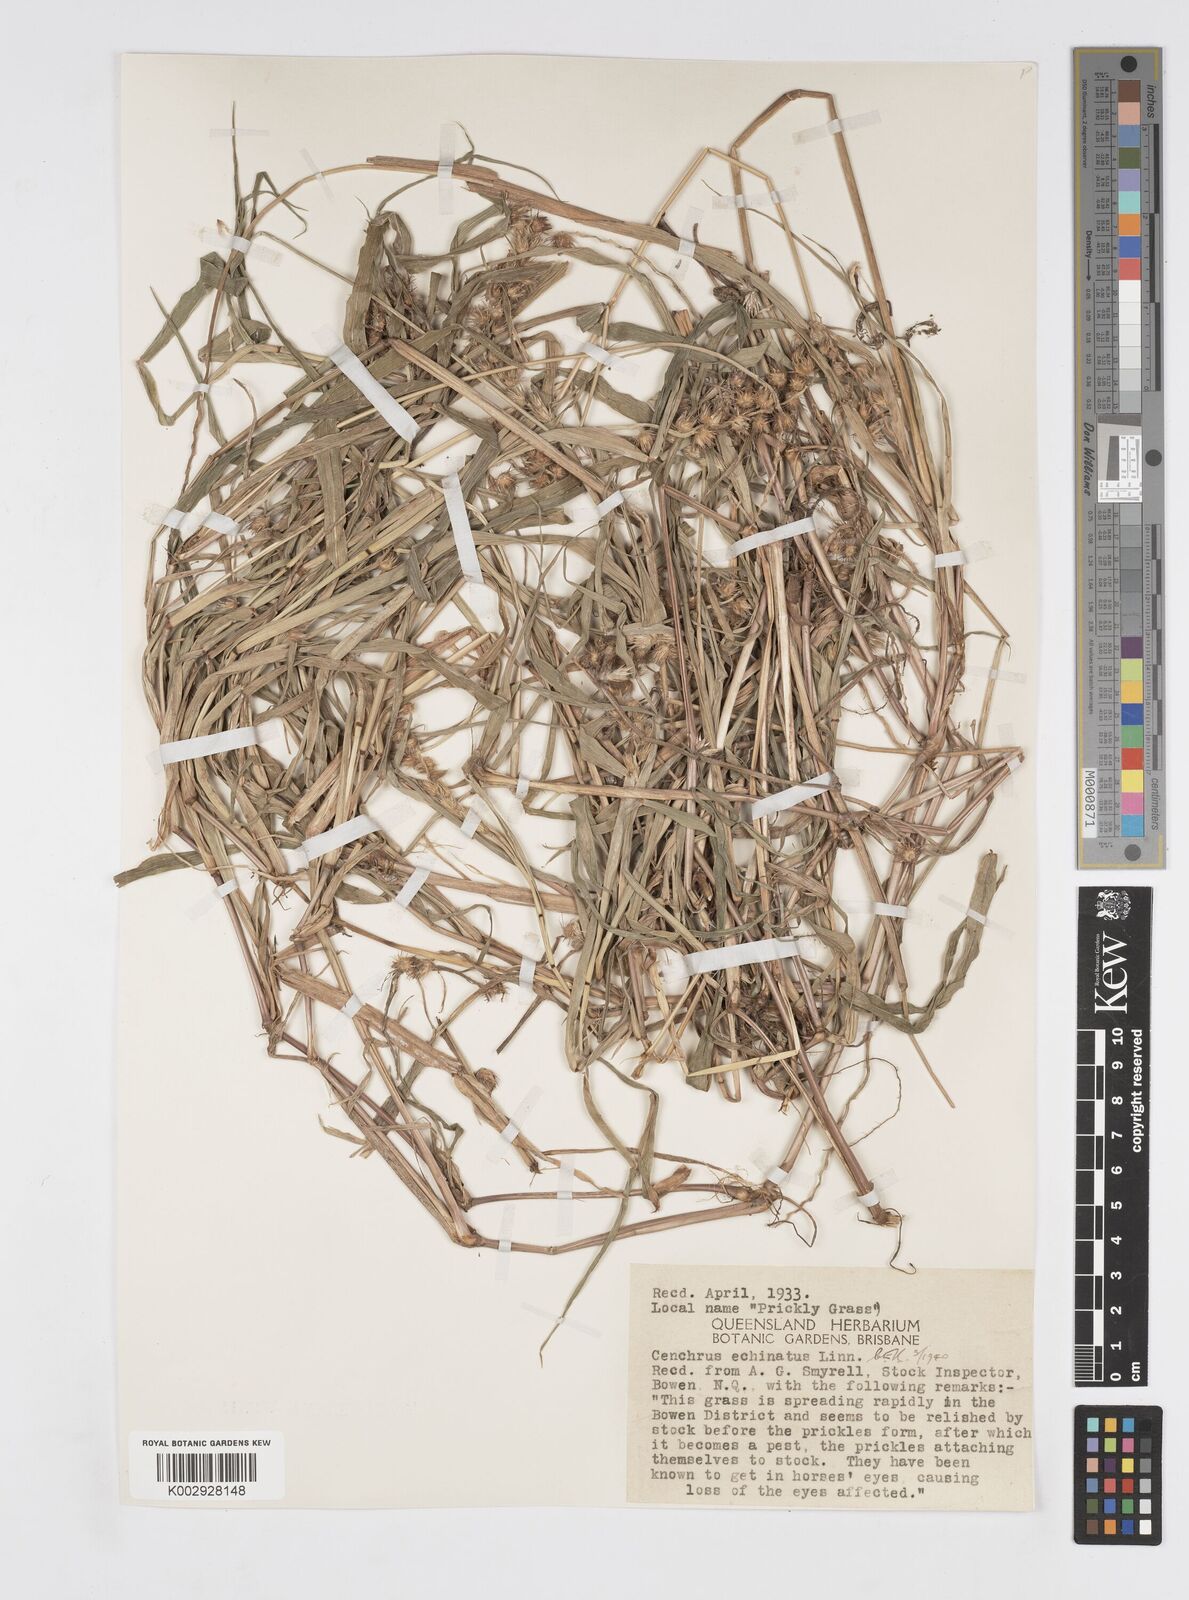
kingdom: Plantae
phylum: Tracheophyta
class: Liliopsida
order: Poales
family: Poaceae
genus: Cenchrus
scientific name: Cenchrus echinatus
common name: Southern sandbur
